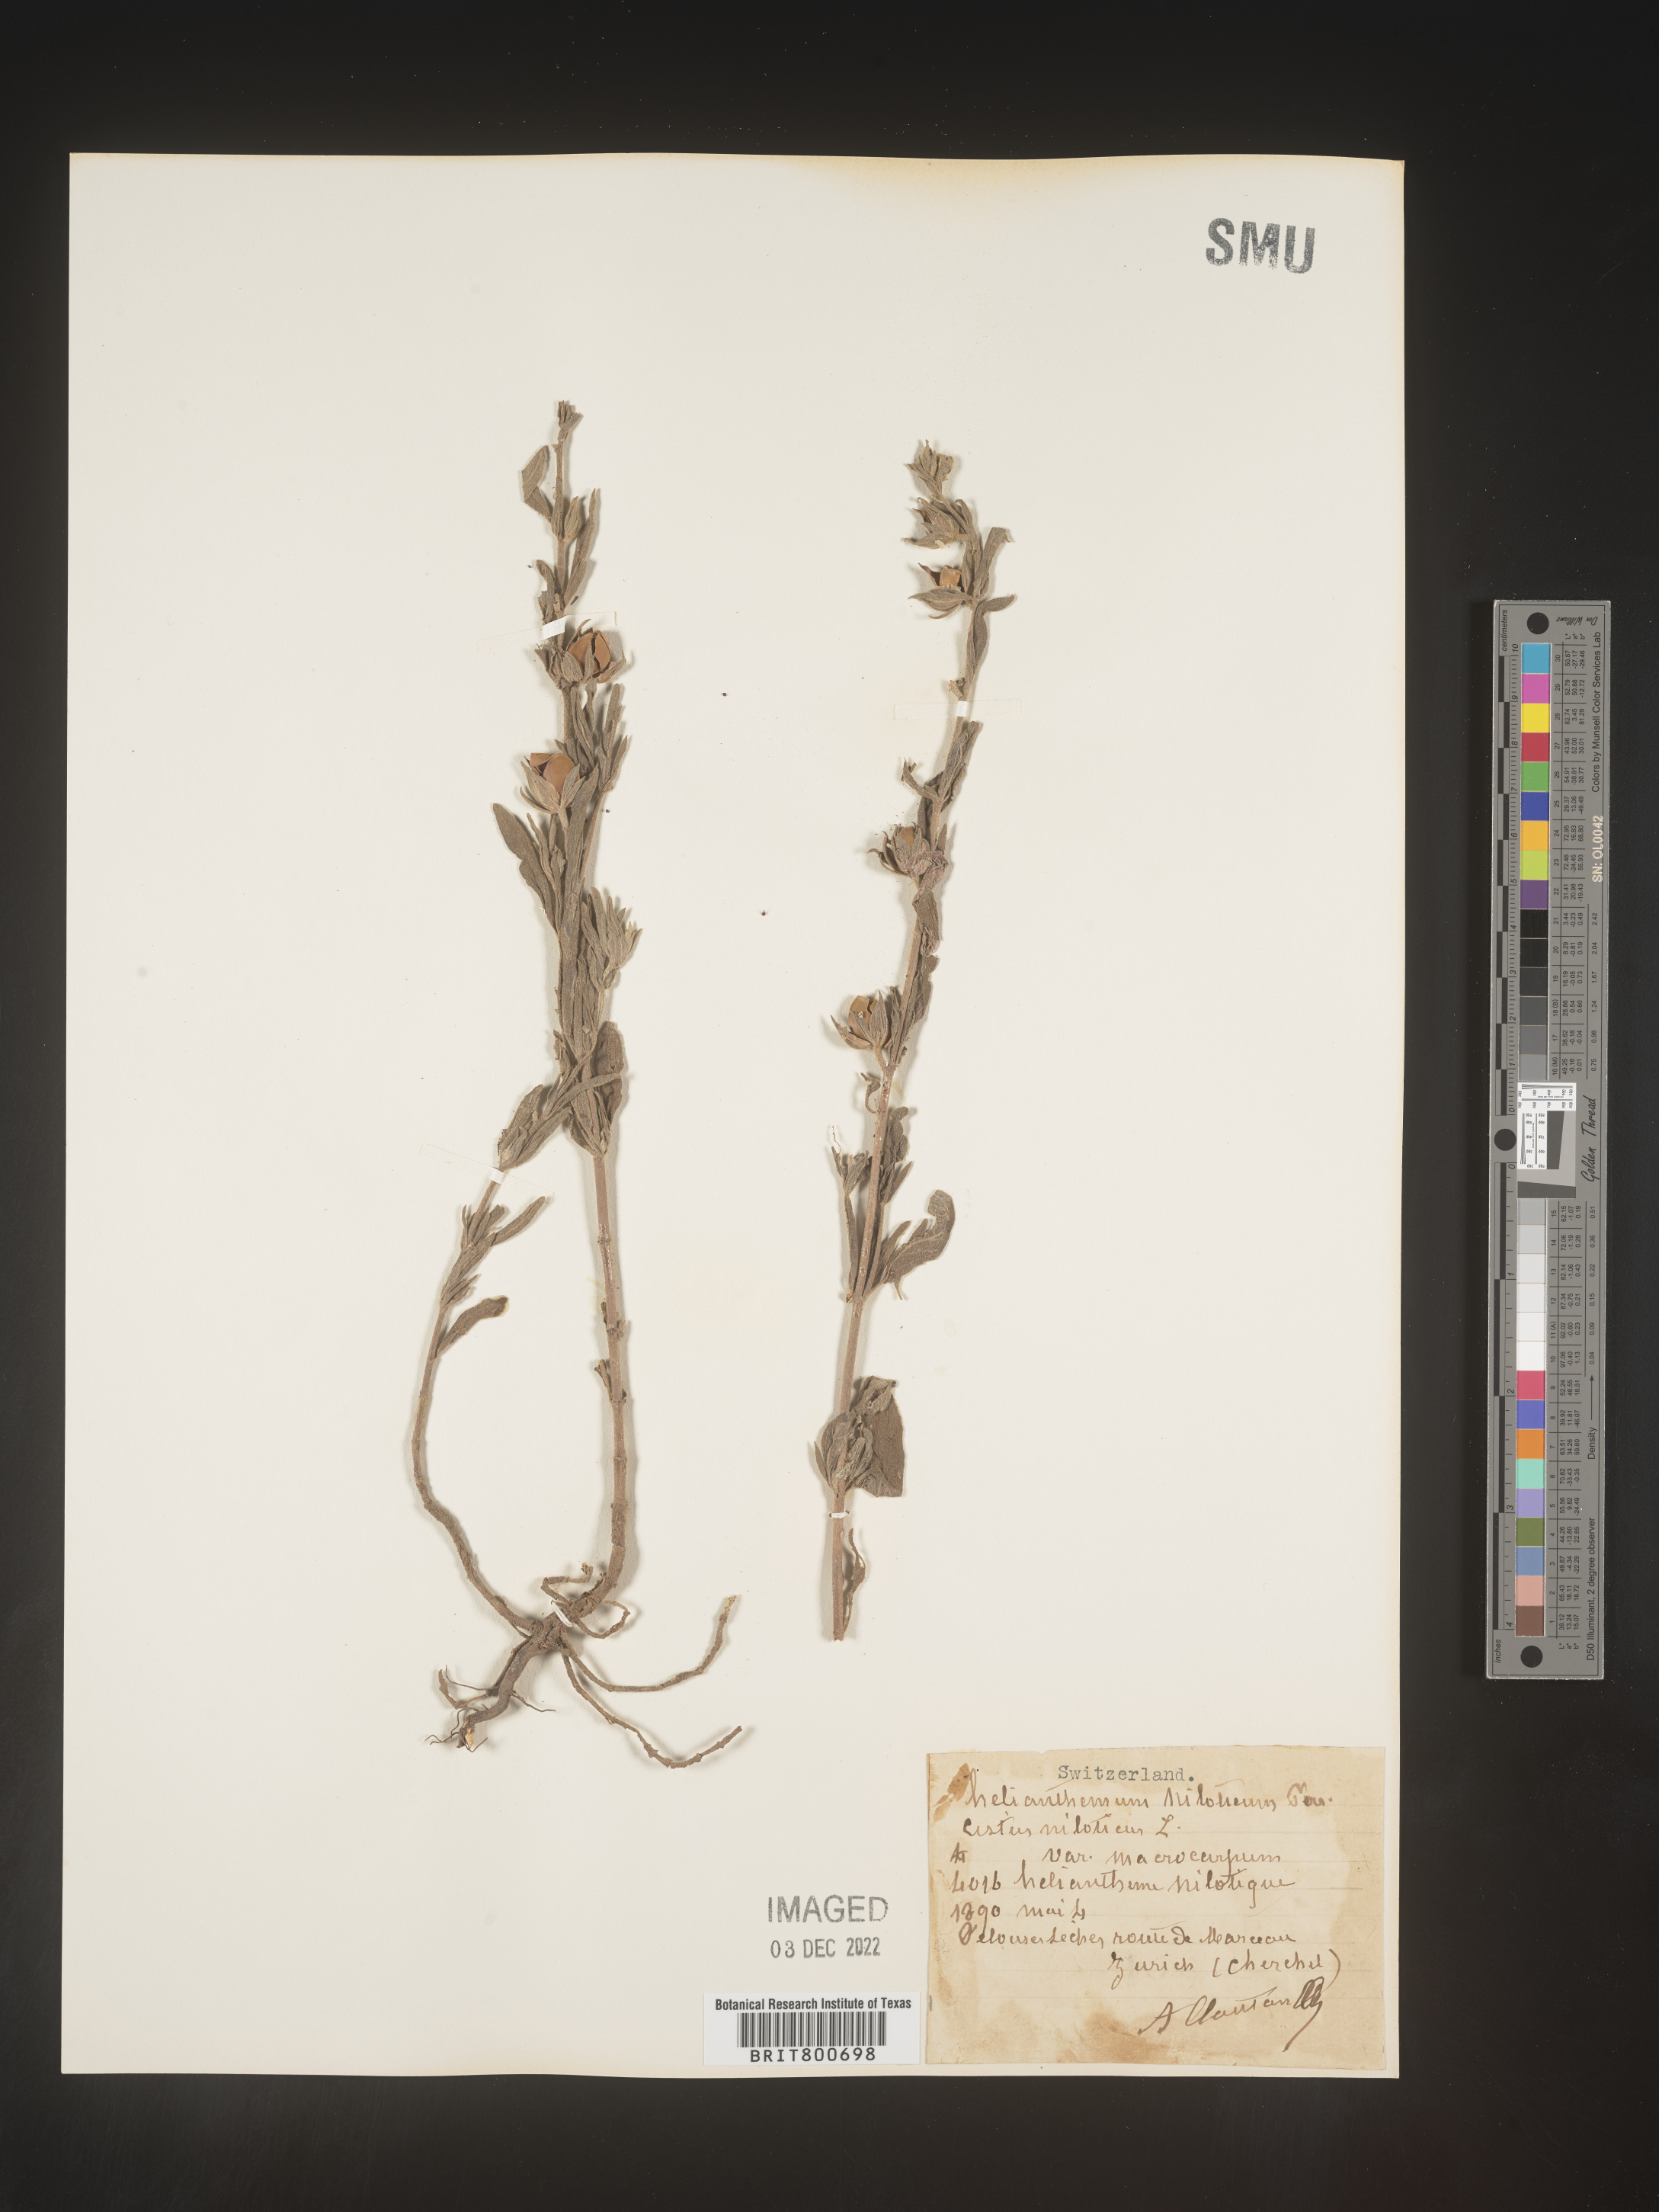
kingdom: Plantae
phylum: Tracheophyta
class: Magnoliopsida
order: Malvales
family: Cistaceae
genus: Helianthemum
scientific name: Helianthemum
